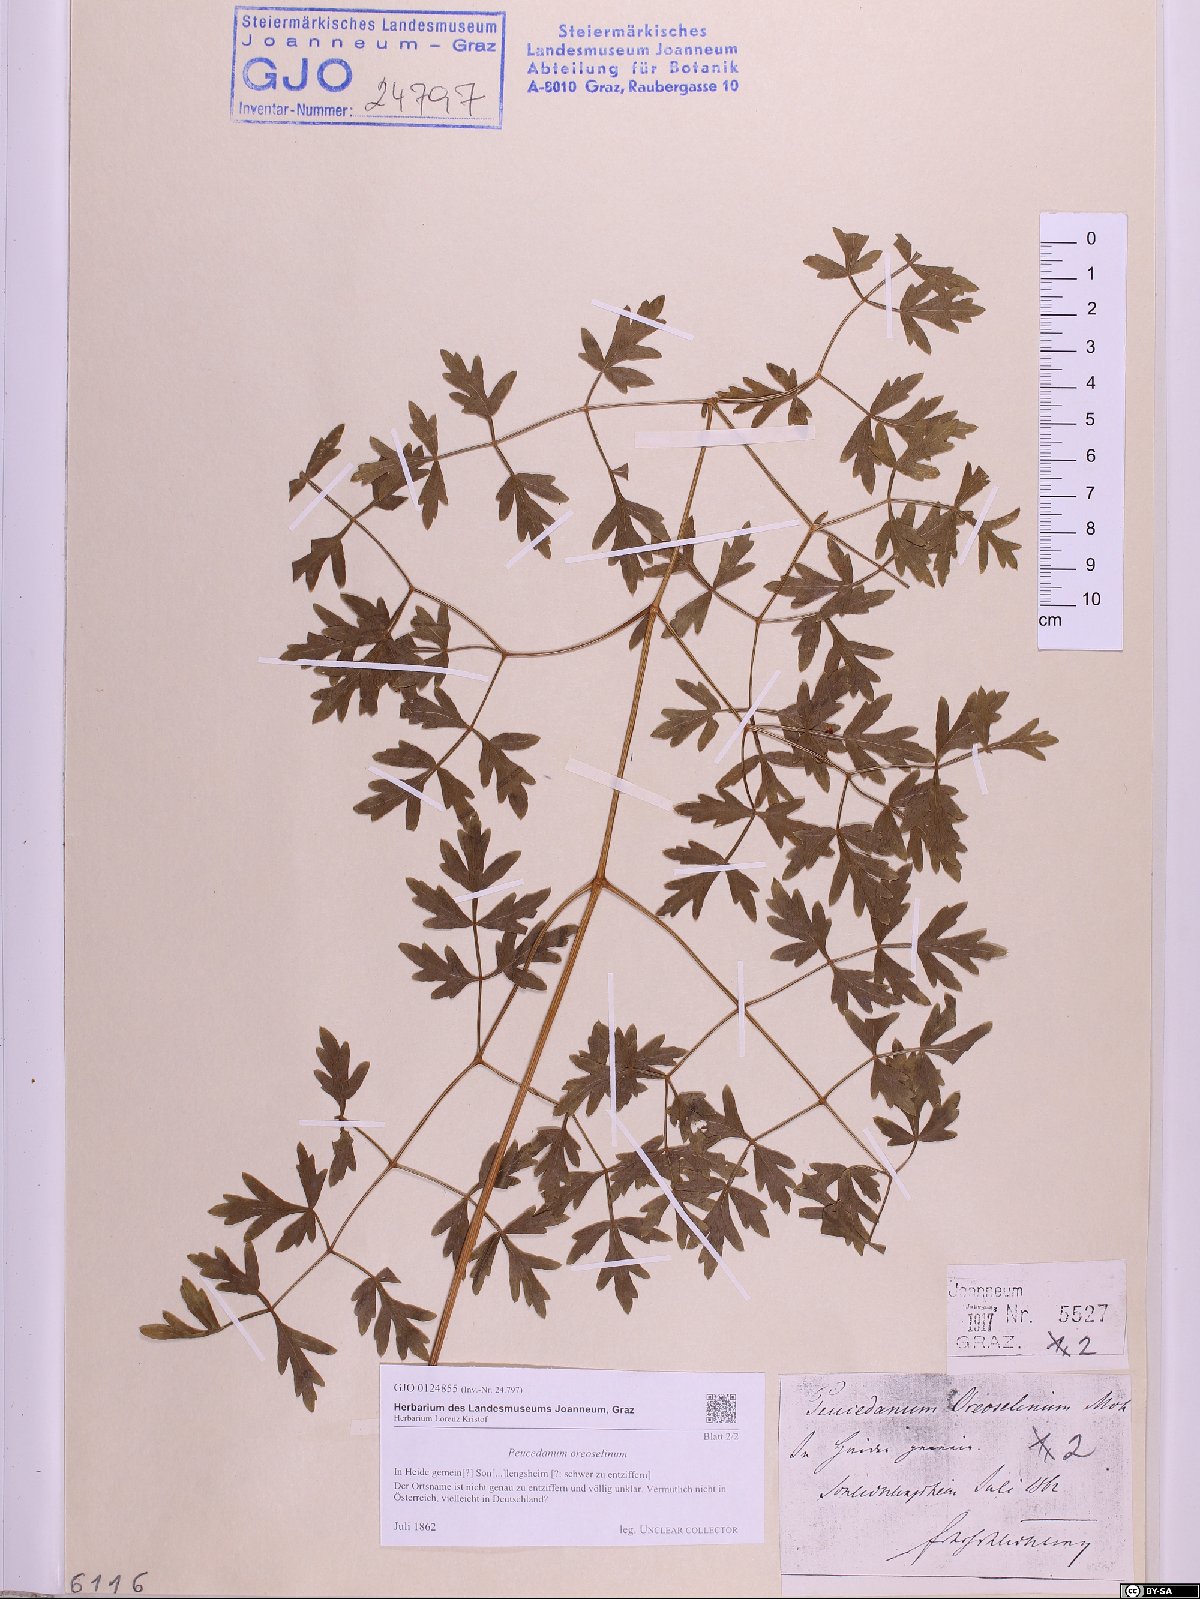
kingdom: Plantae
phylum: Tracheophyta
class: Magnoliopsida
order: Apiales
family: Apiaceae
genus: Oreoselinum
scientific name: Oreoselinum nigrum
